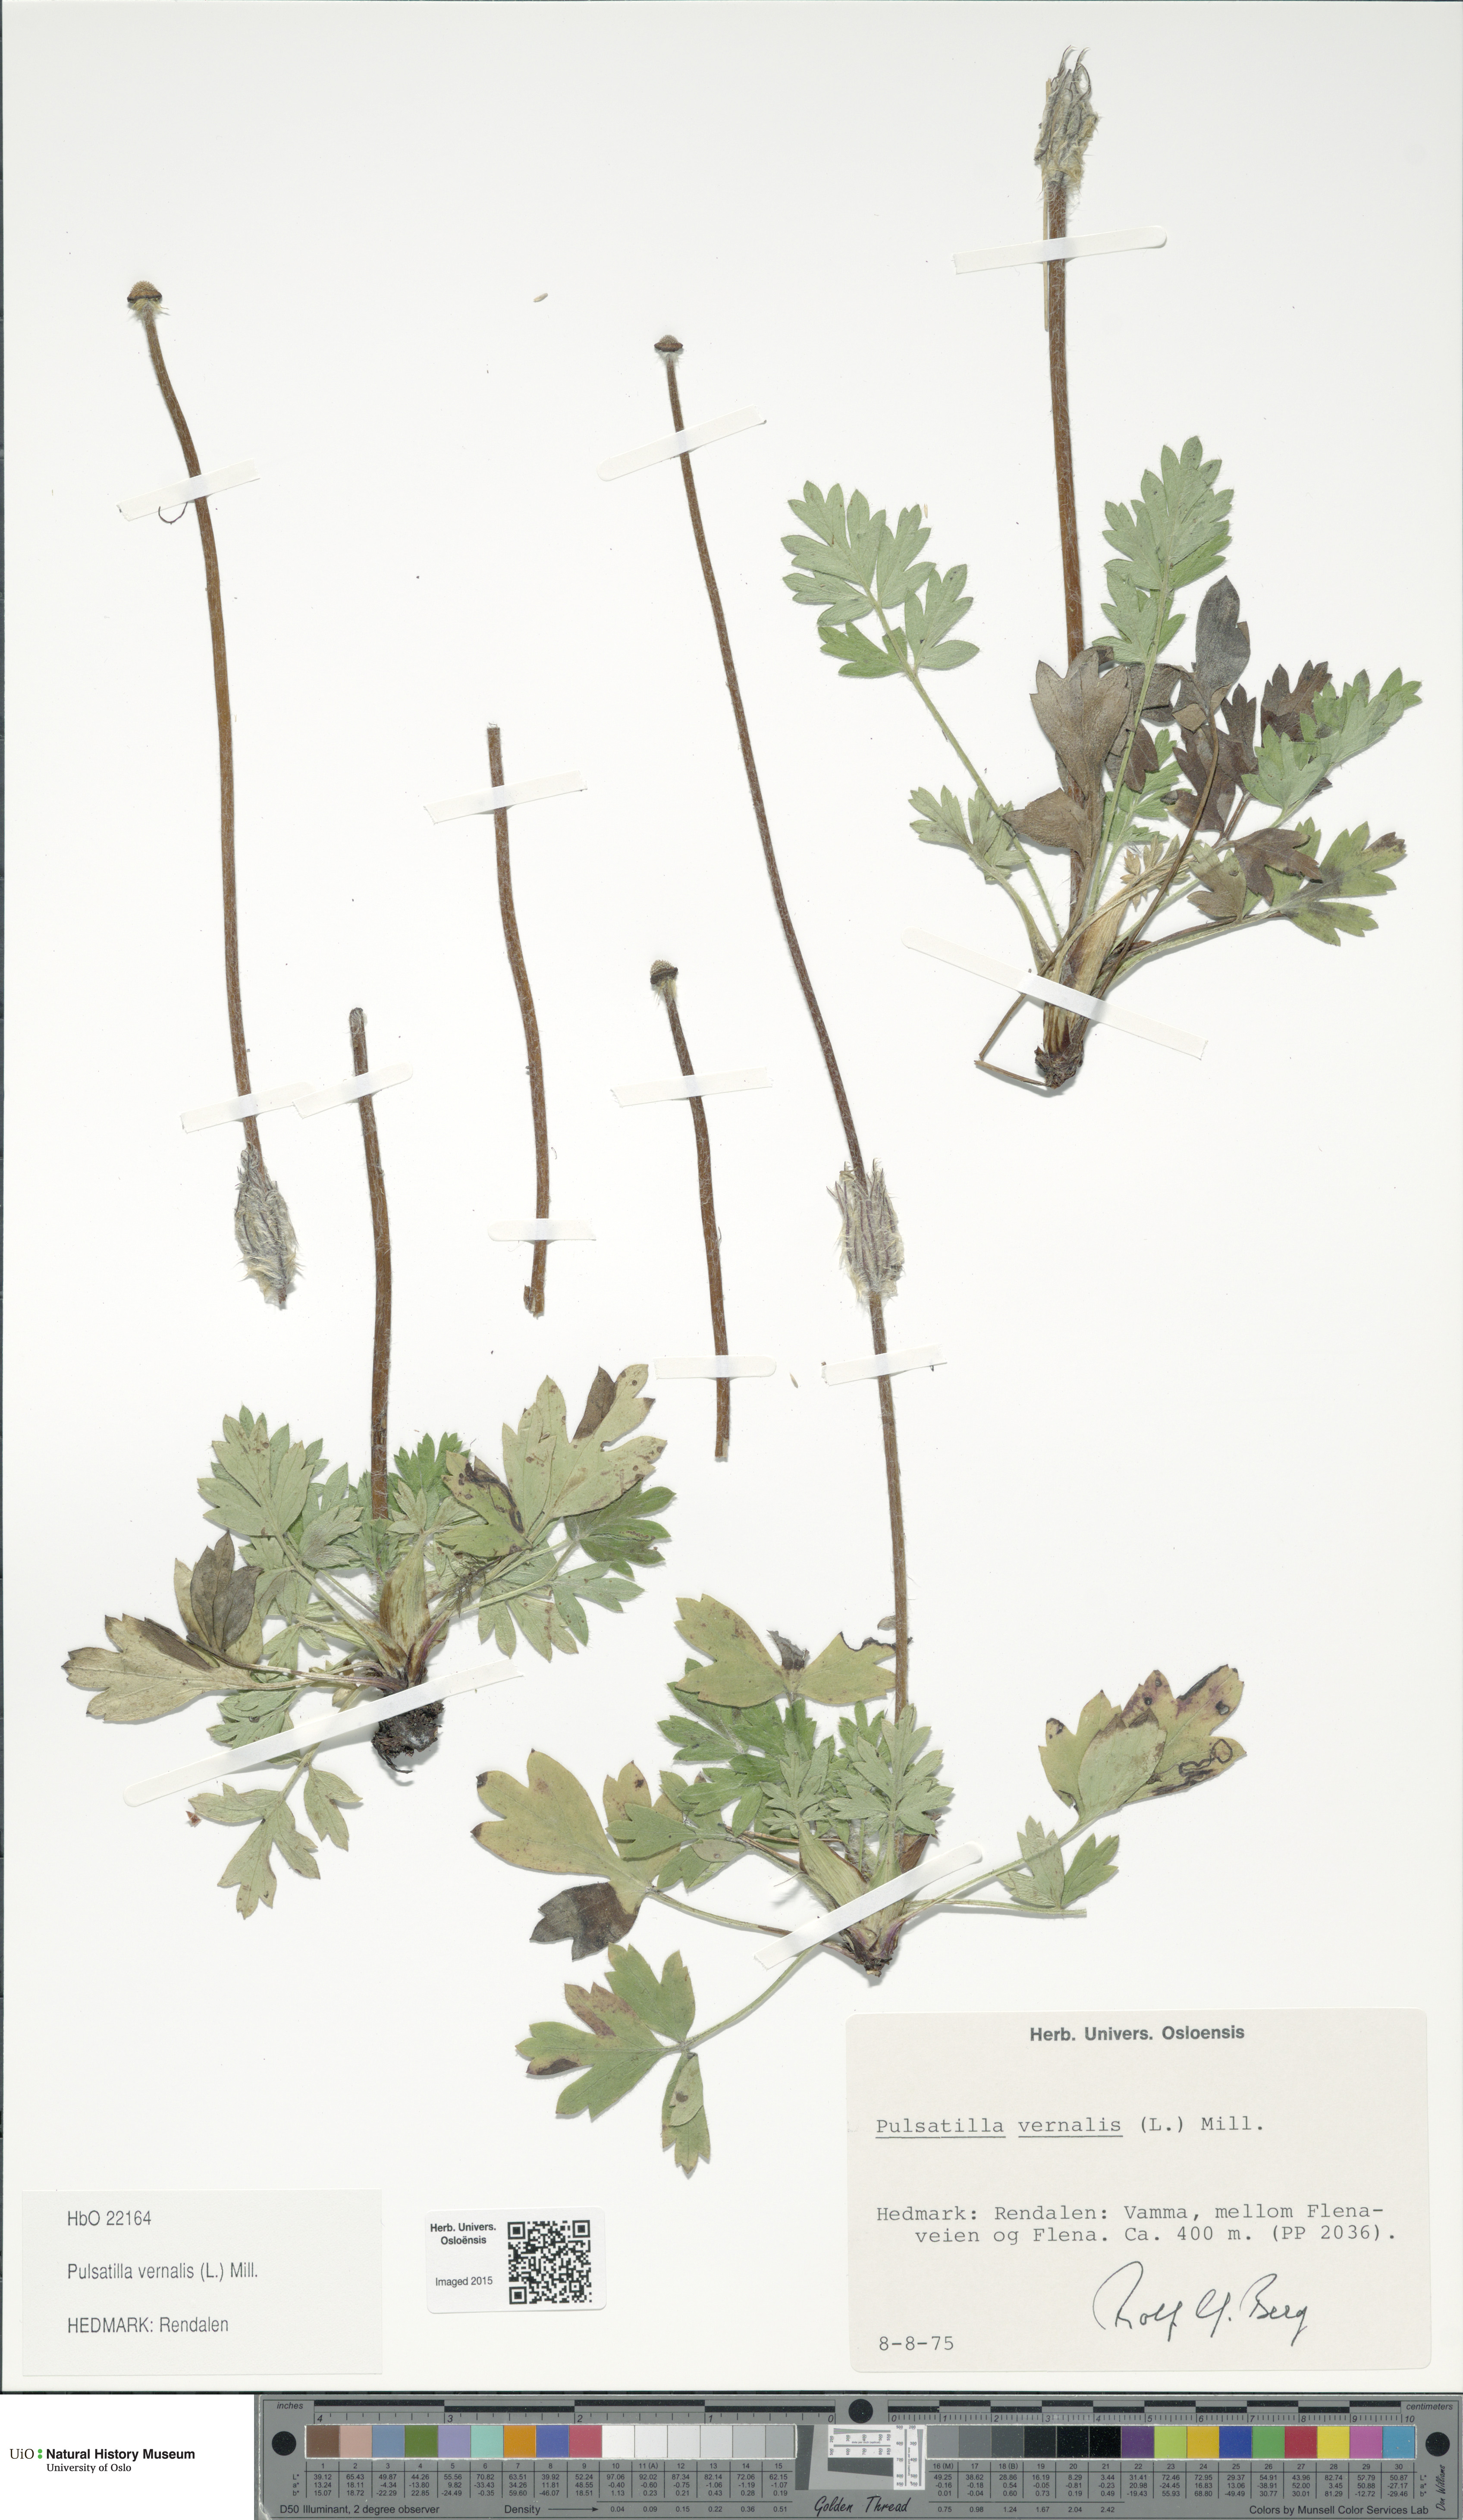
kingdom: Plantae
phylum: Tracheophyta
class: Magnoliopsida
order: Ranunculales
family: Ranunculaceae
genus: Pulsatilla
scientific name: Pulsatilla vernalis
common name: Spring pasque flower
